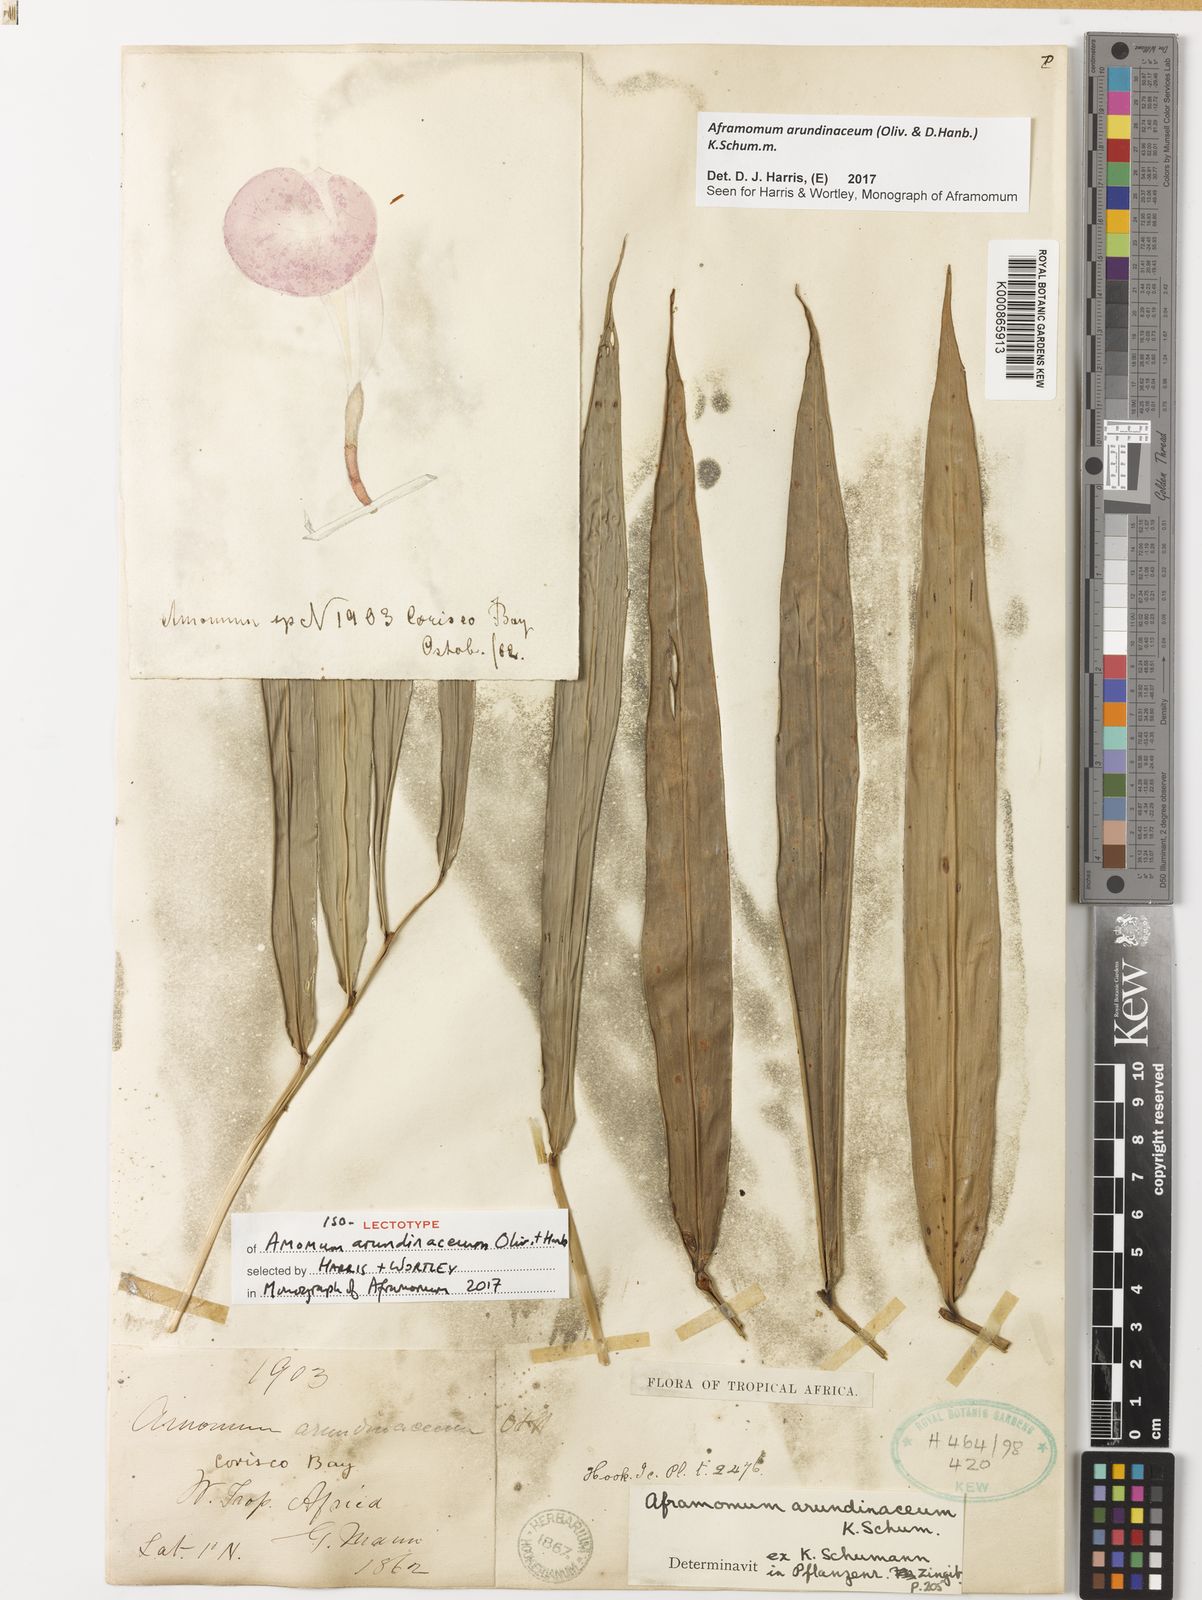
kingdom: Plantae
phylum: Tracheophyta
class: Liliopsida
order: Zingiberales
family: Zingiberaceae
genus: Aframomum
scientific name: Aframomum arundinaceum
